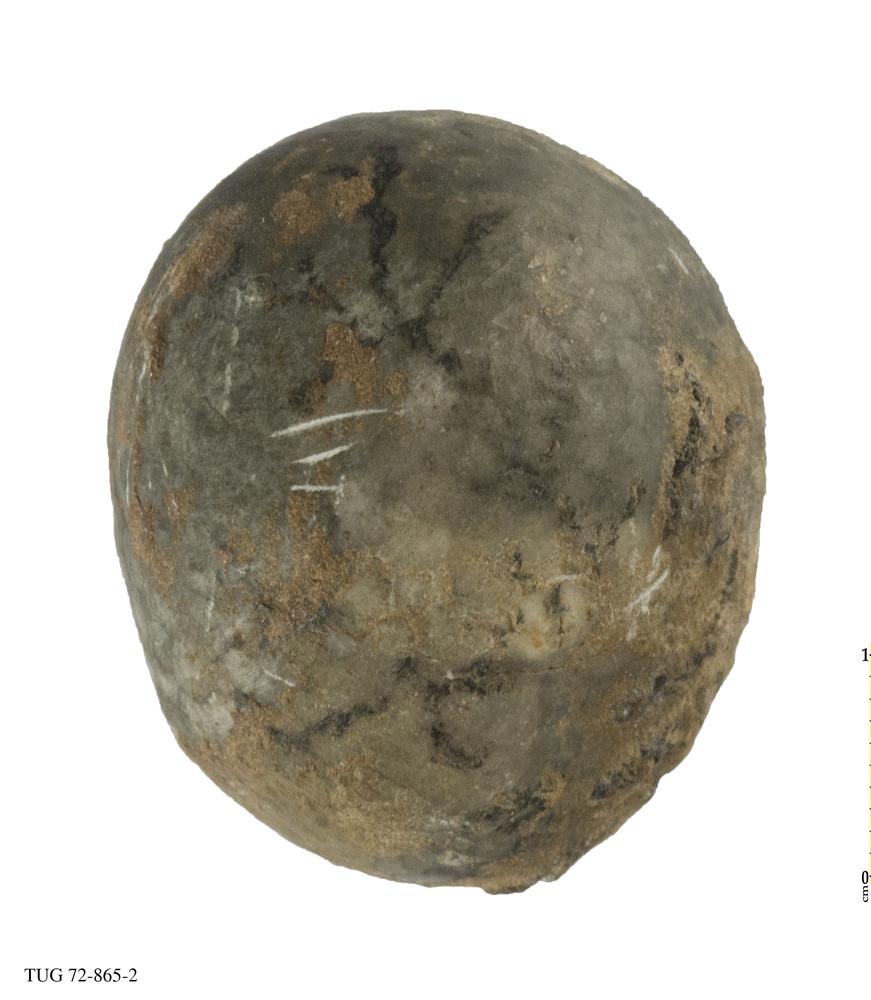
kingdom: Animalia
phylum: Hemichordata
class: Pterobranchia
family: Acanthograptidae
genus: Thallograptus
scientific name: Thallograptus
